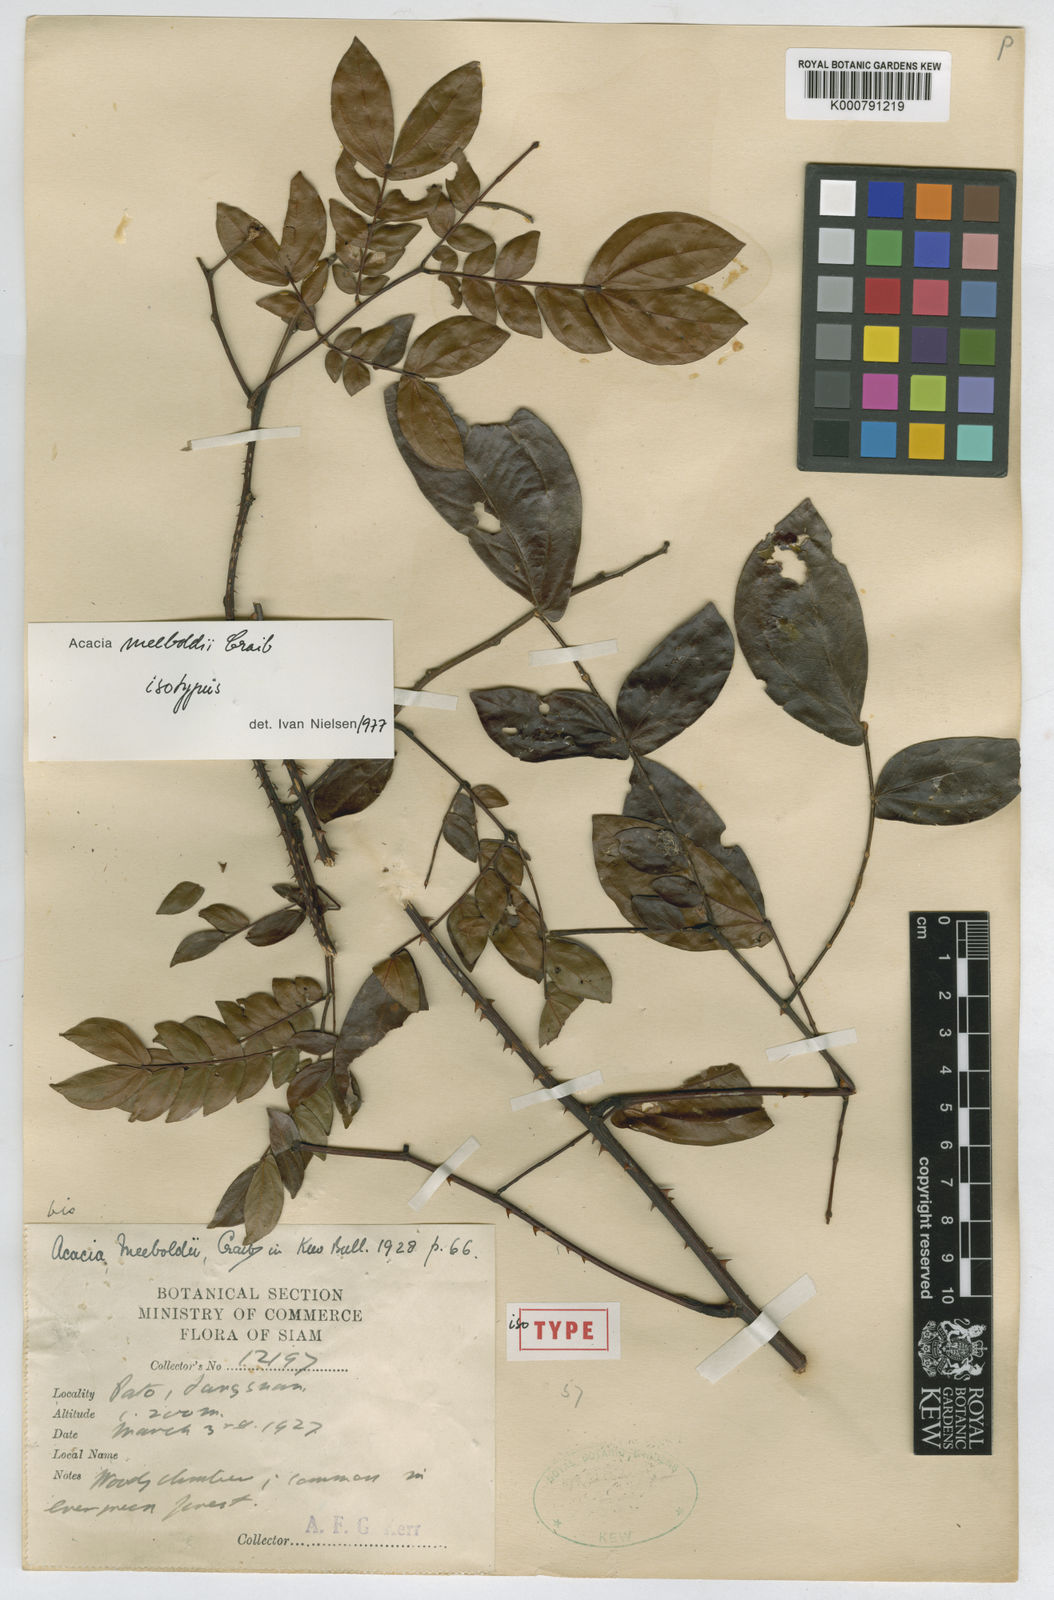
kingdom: Plantae
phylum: Tracheophyta
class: Magnoliopsida
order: Fabales
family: Fabaceae
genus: Senegalia
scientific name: Senegalia meeboldii
